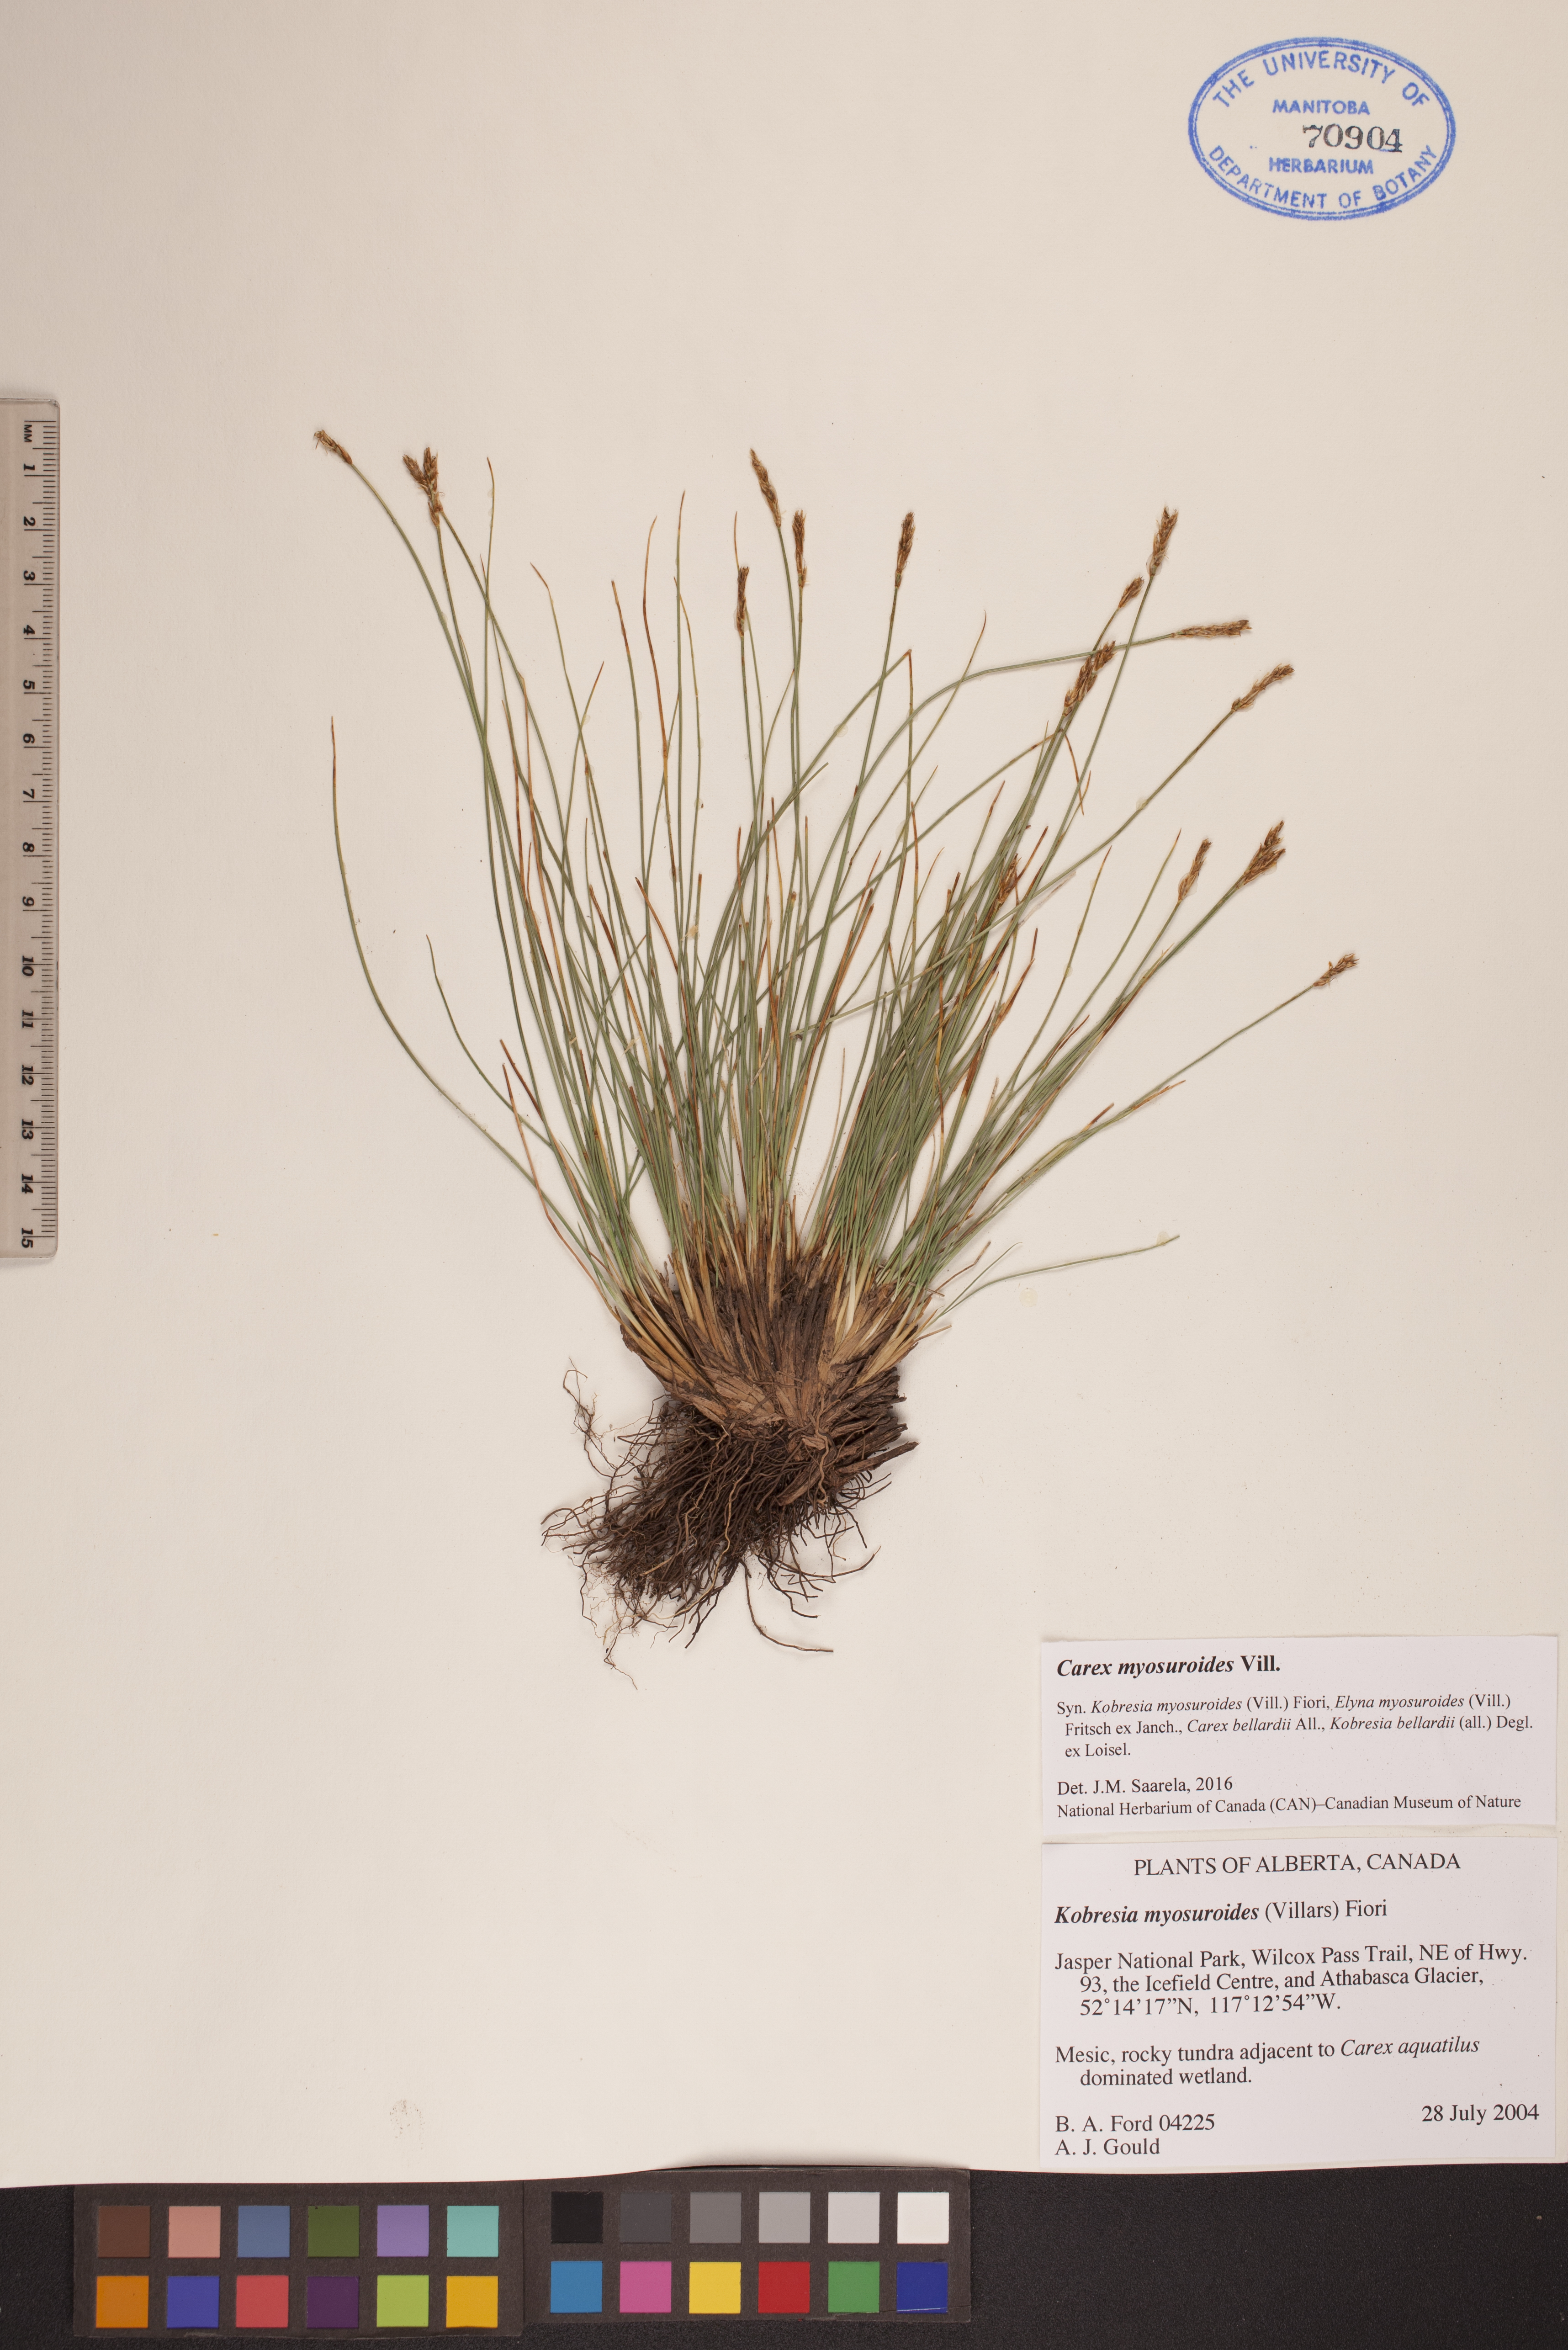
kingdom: Plantae
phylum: Tracheophyta
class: Liliopsida
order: Poales
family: Cyperaceae
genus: Carex
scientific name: Carex myosuroides
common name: Bellard's bog sedge
